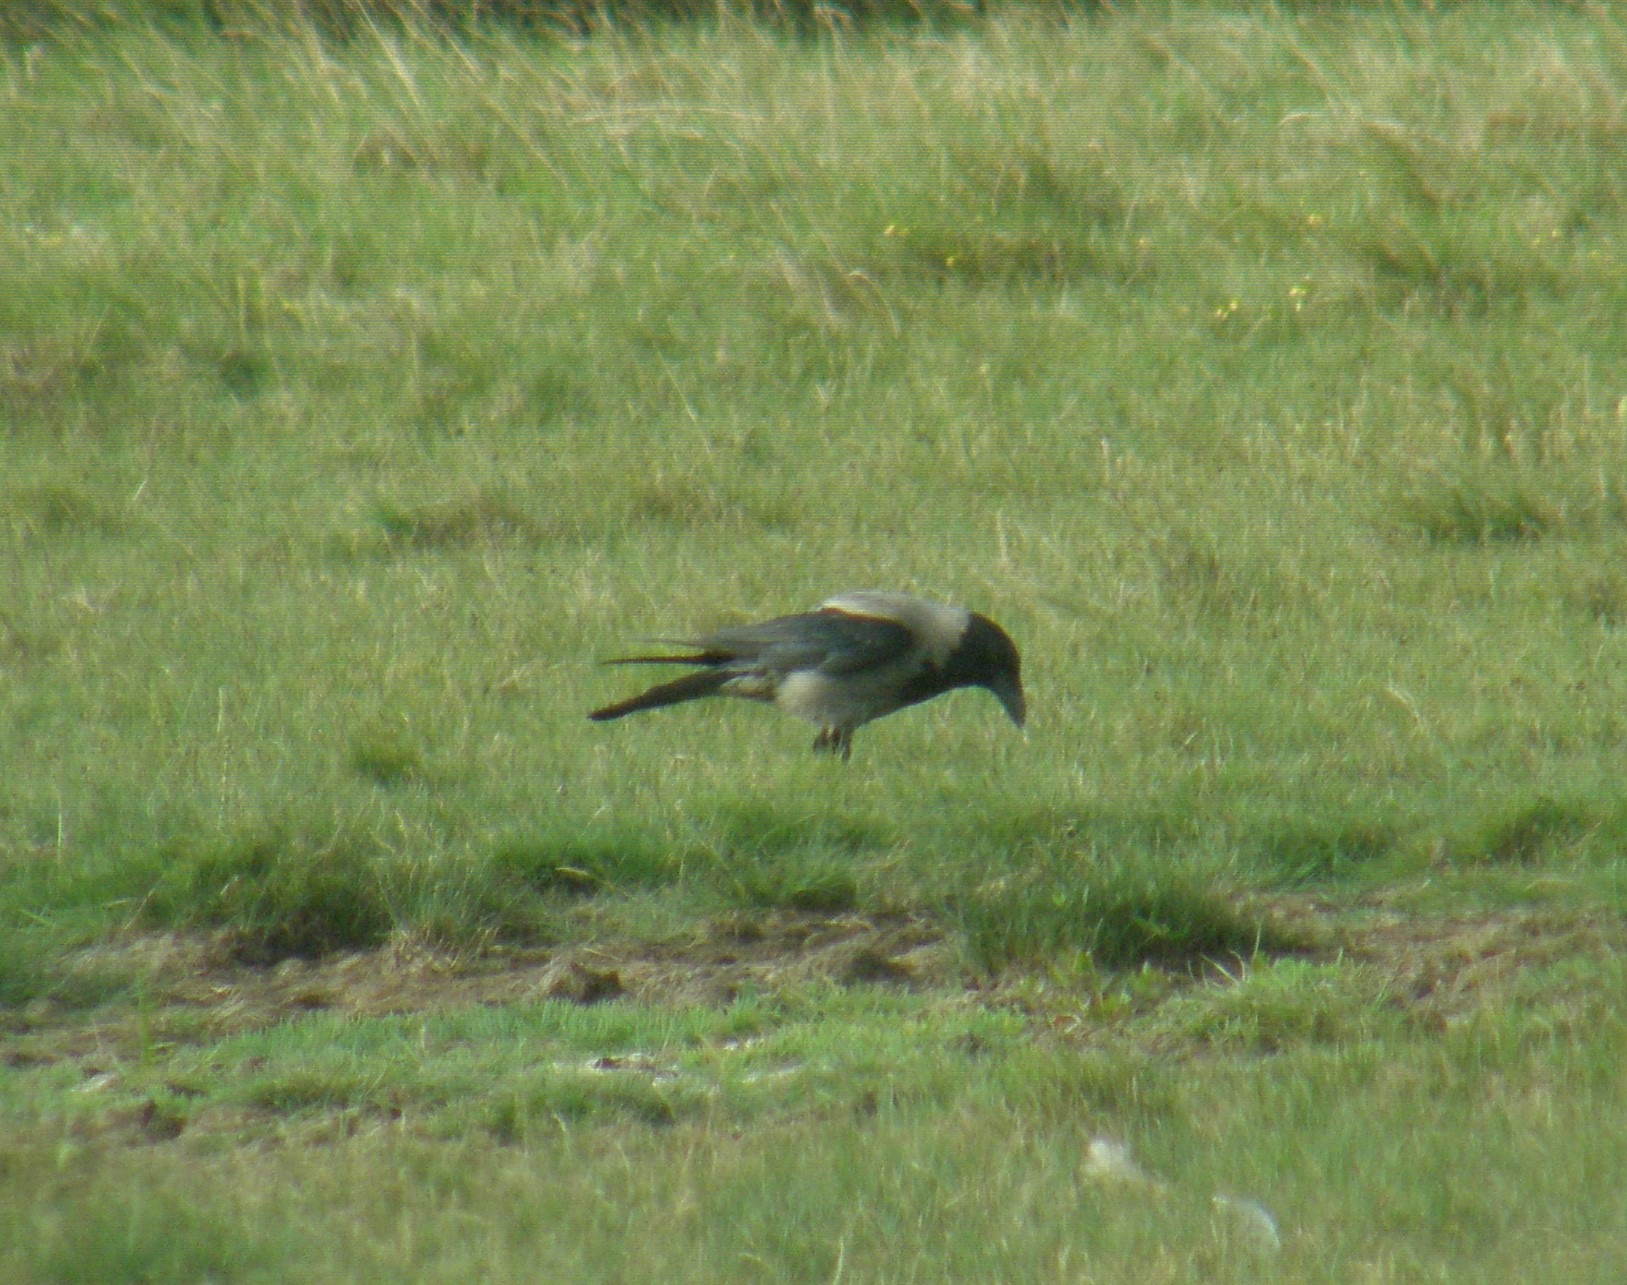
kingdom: Animalia
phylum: Chordata
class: Aves
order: Passeriformes
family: Corvidae
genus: Corvus
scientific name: Corvus cornix
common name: Gråkrage
